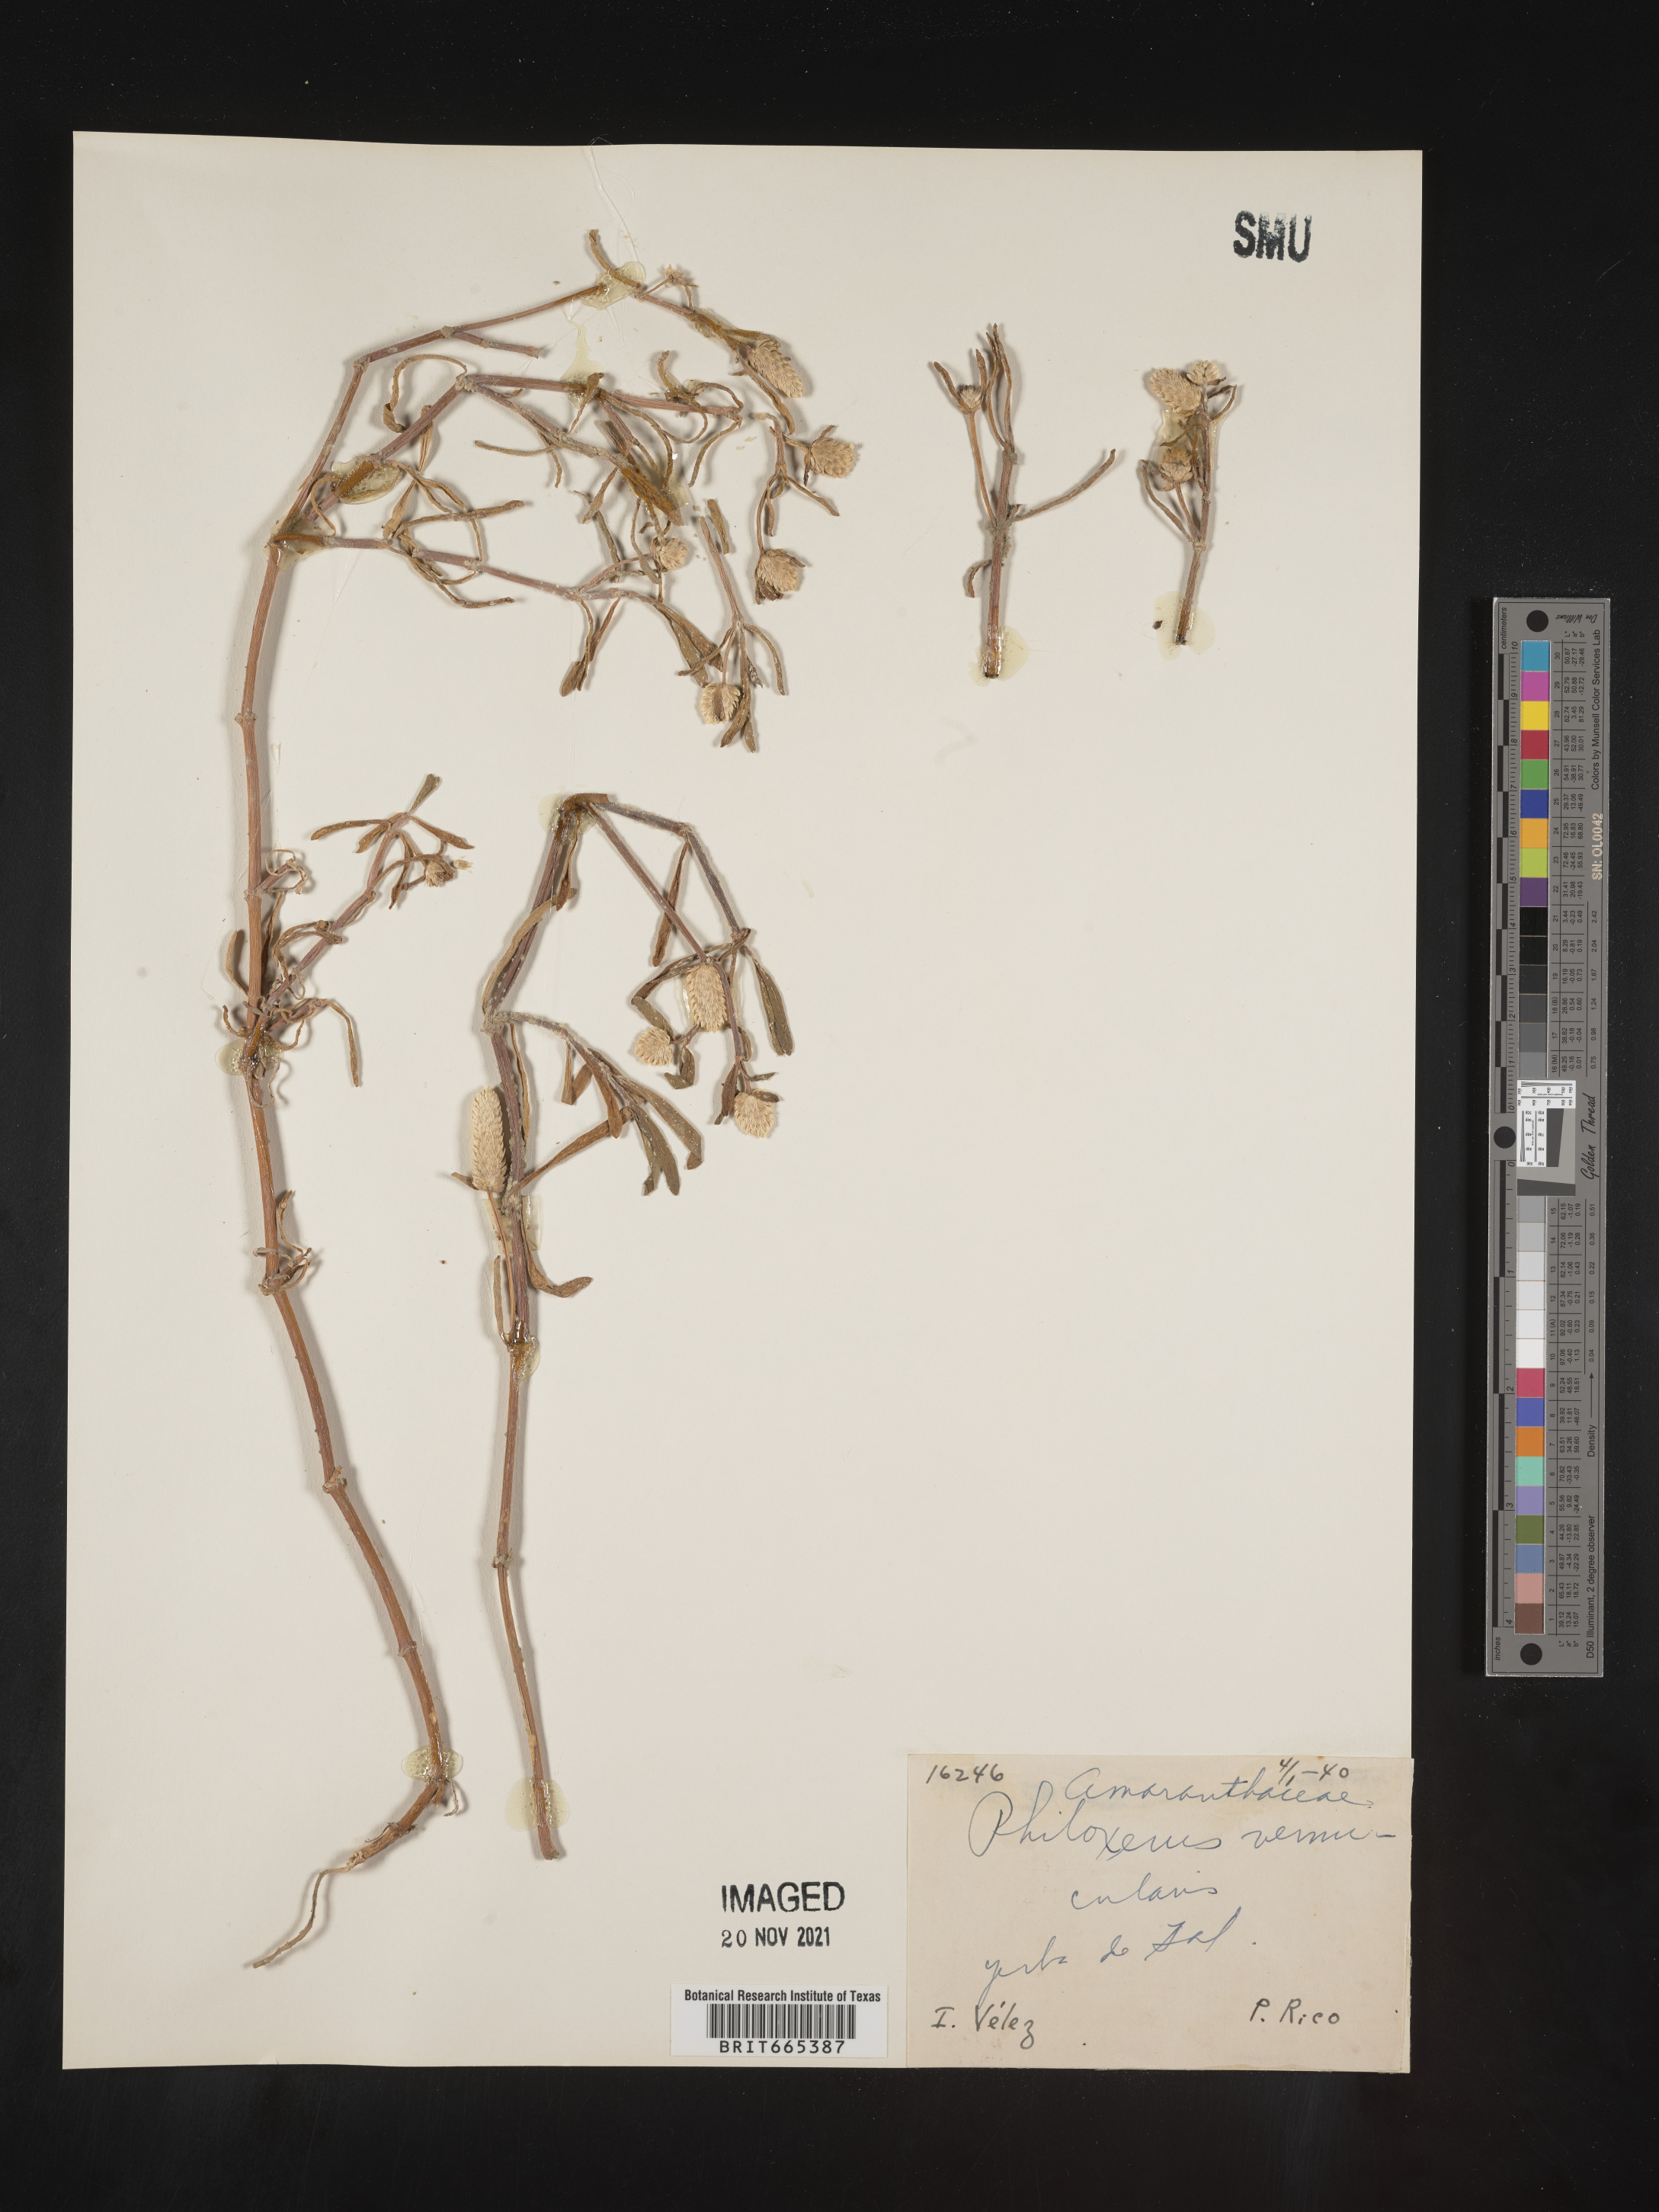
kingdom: Plantae
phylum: Tracheophyta
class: Magnoliopsida
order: Caryophyllales
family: Amaranthaceae
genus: Gomphrena
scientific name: Gomphrena
